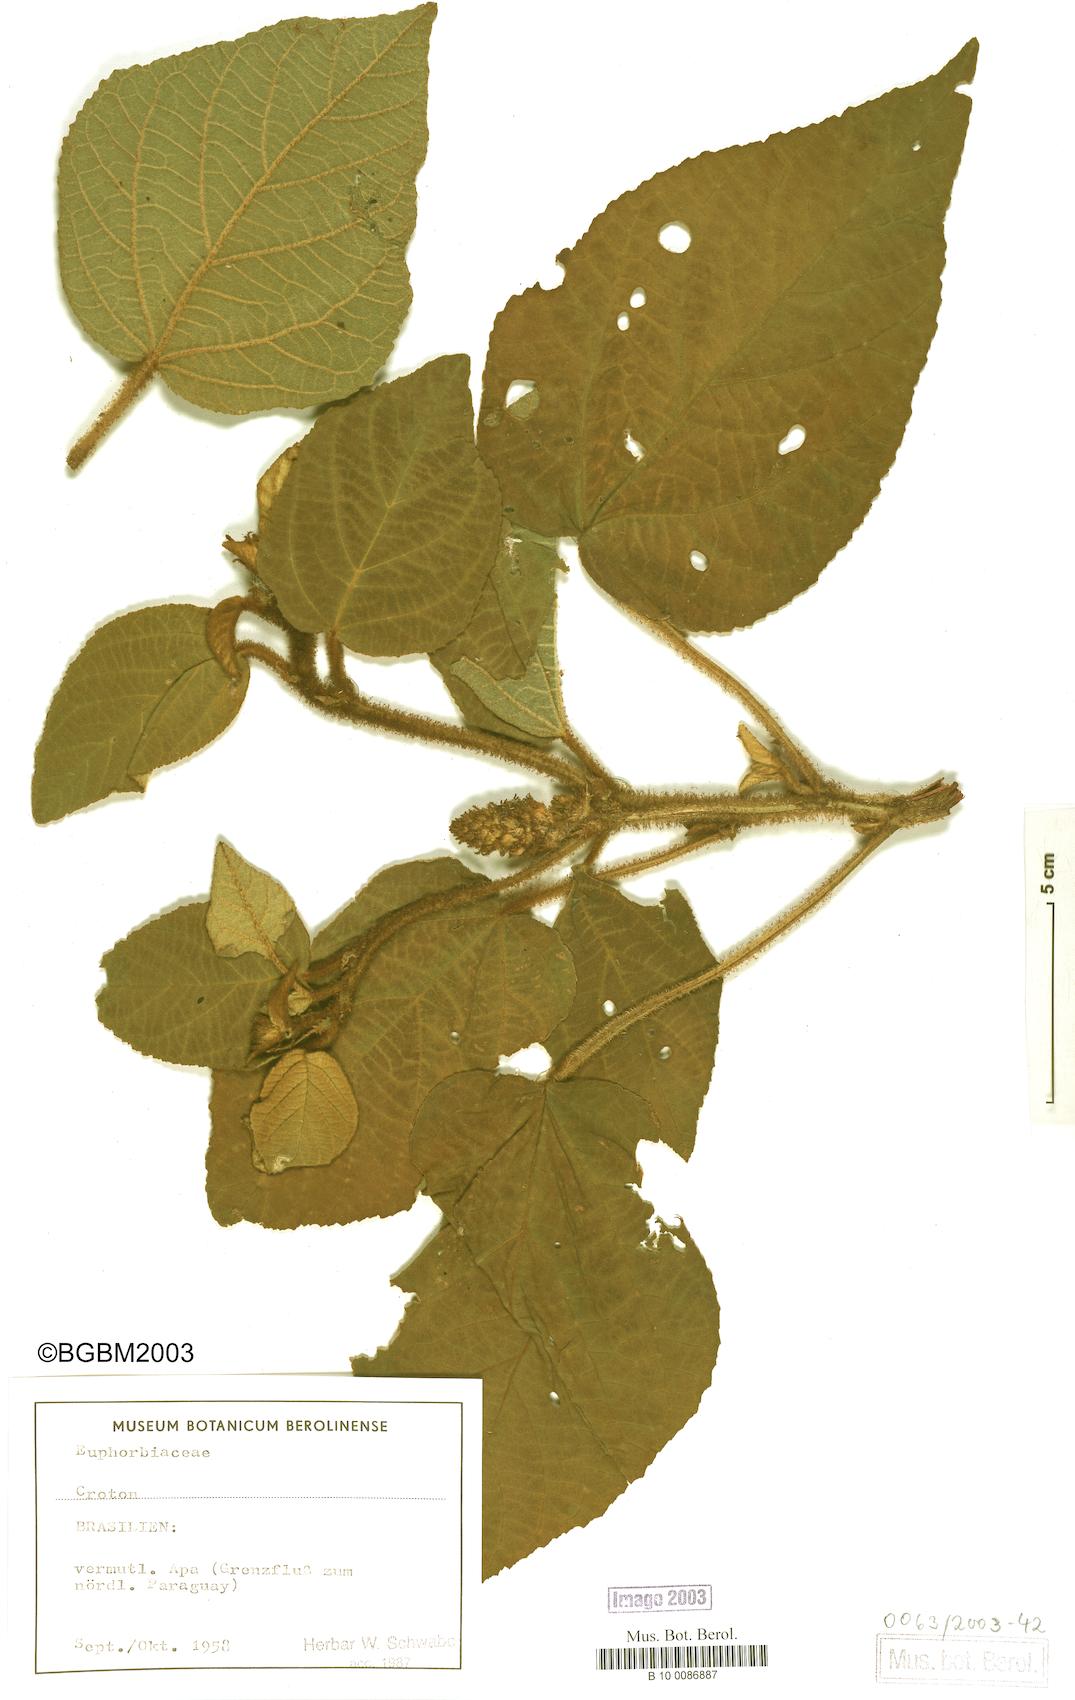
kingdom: Plantae
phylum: Tracheophyta
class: Magnoliopsida
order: Malpighiales
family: Euphorbiaceae
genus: Croton
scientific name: Croton
